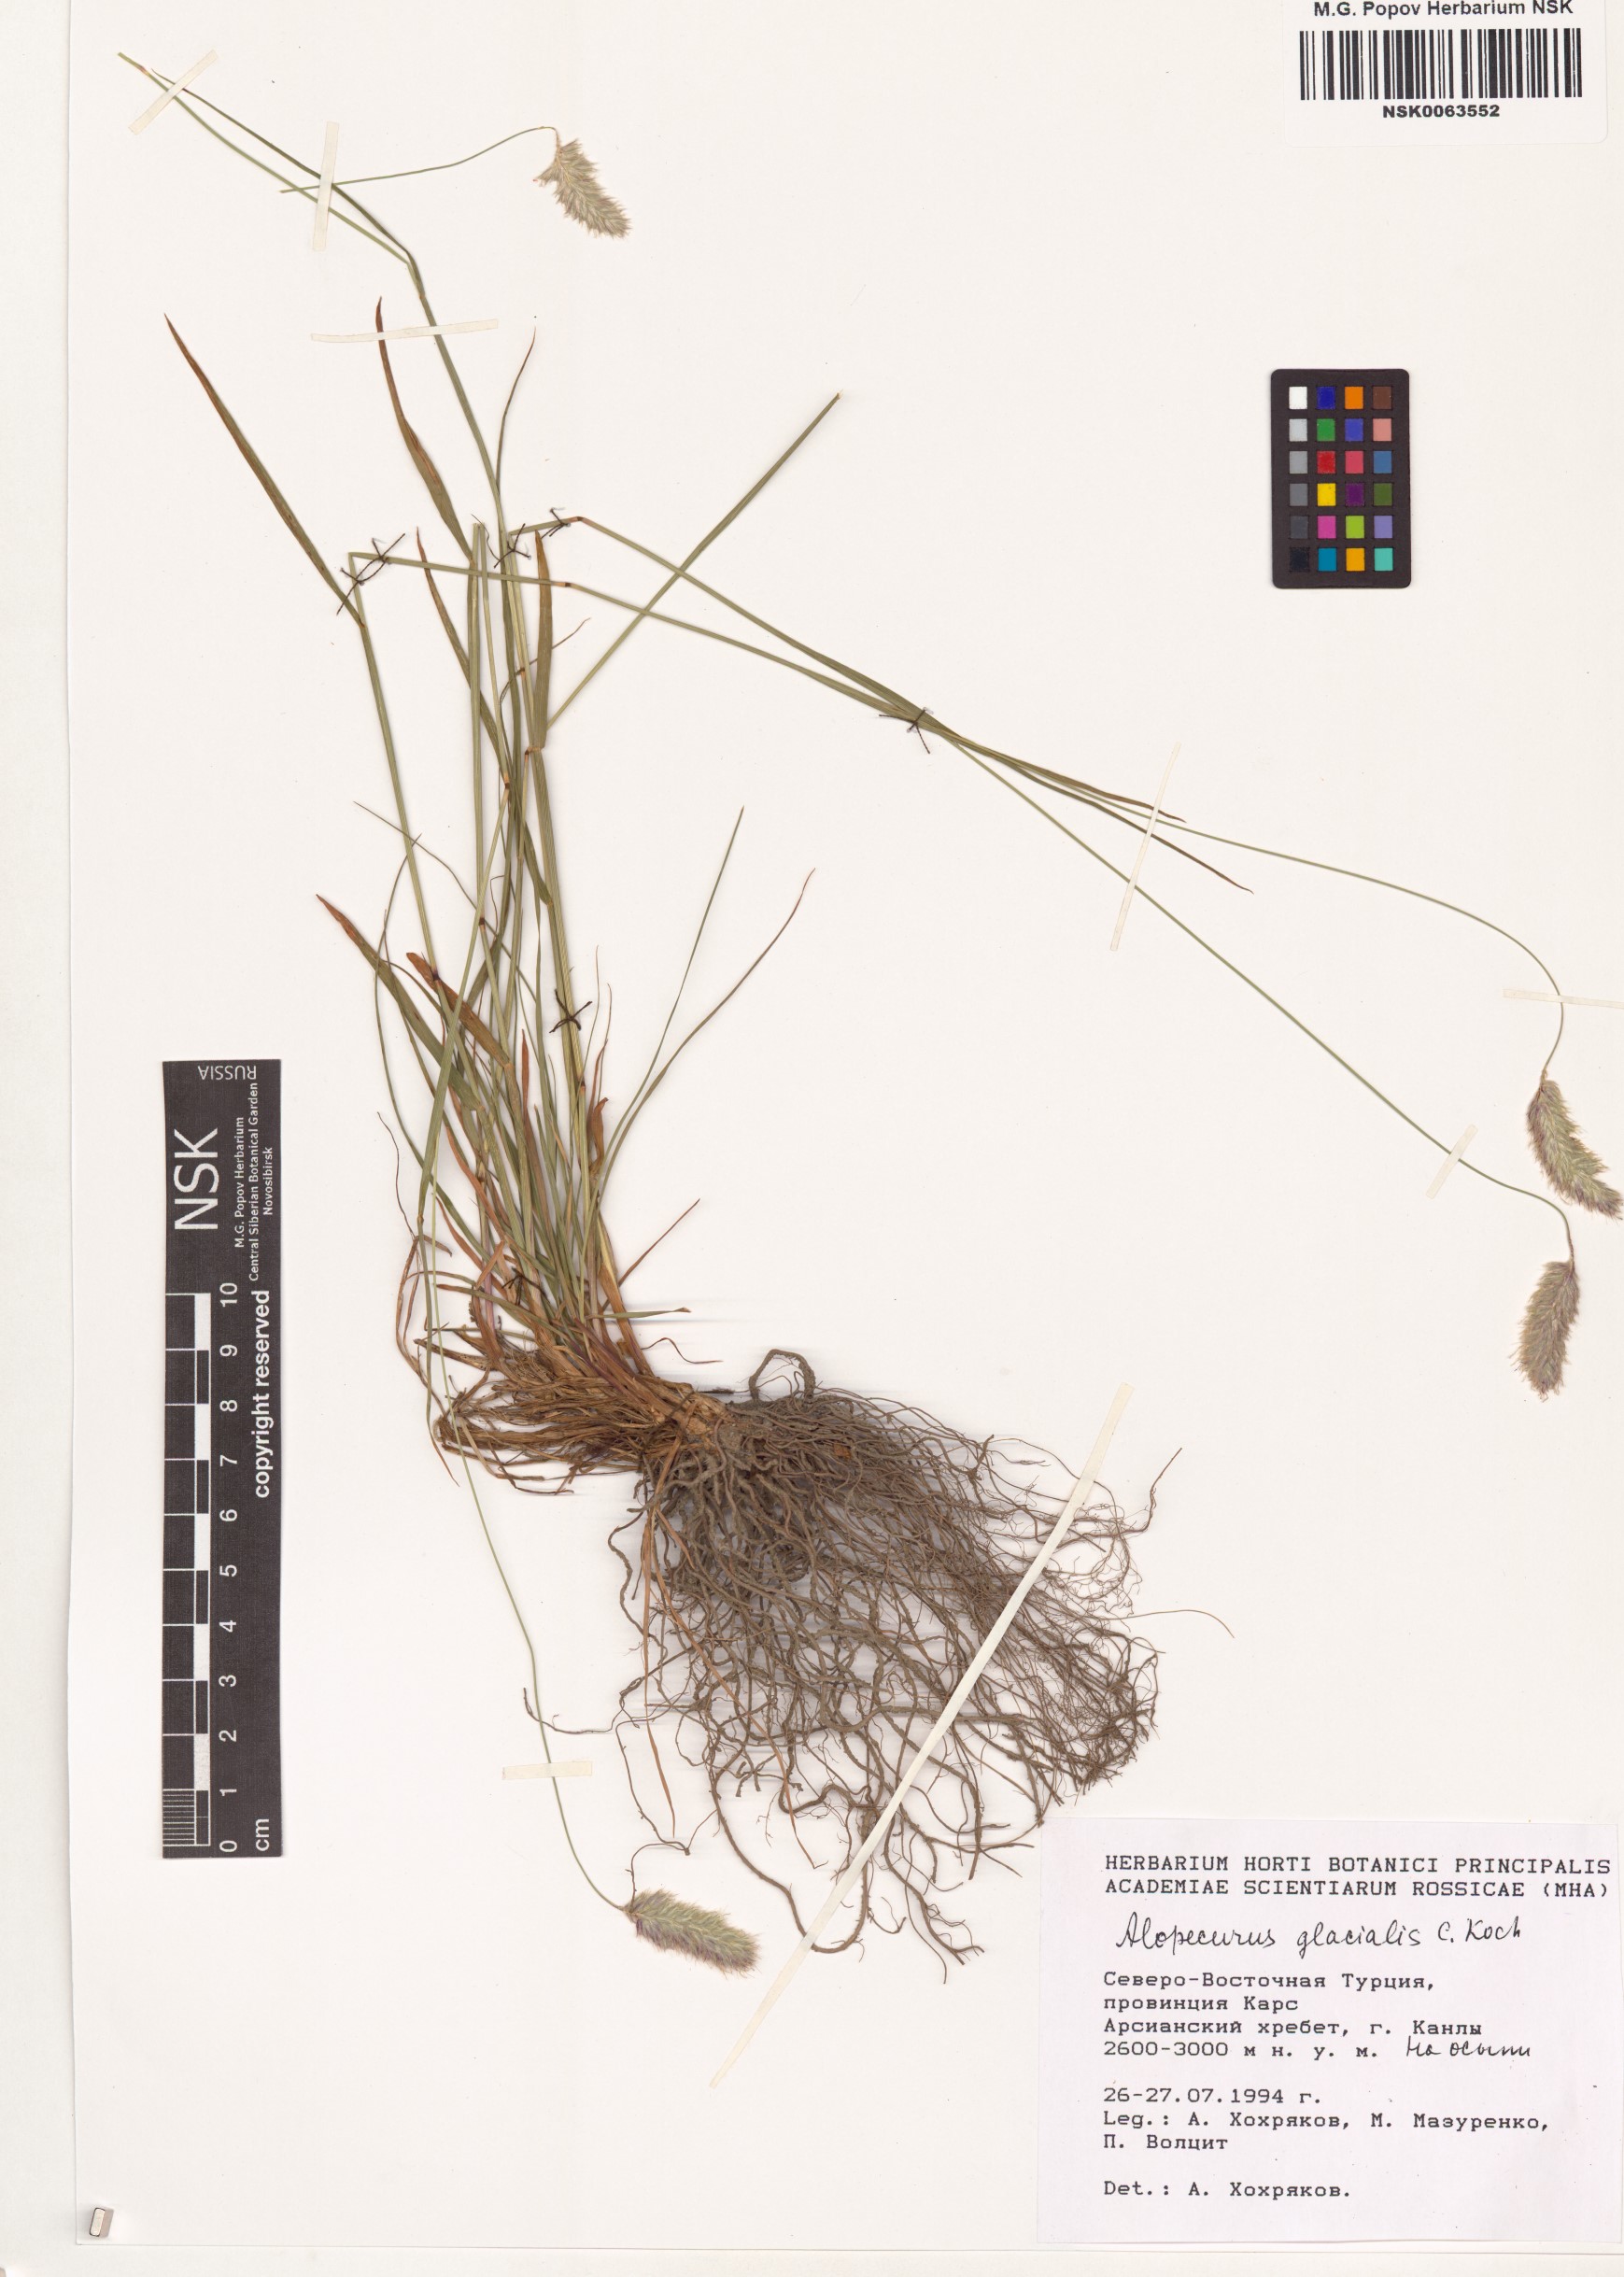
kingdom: Plantae
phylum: Tracheophyta
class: Liliopsida
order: Poales
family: Poaceae
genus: Alopecurus
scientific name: Alopecurus glacialis
